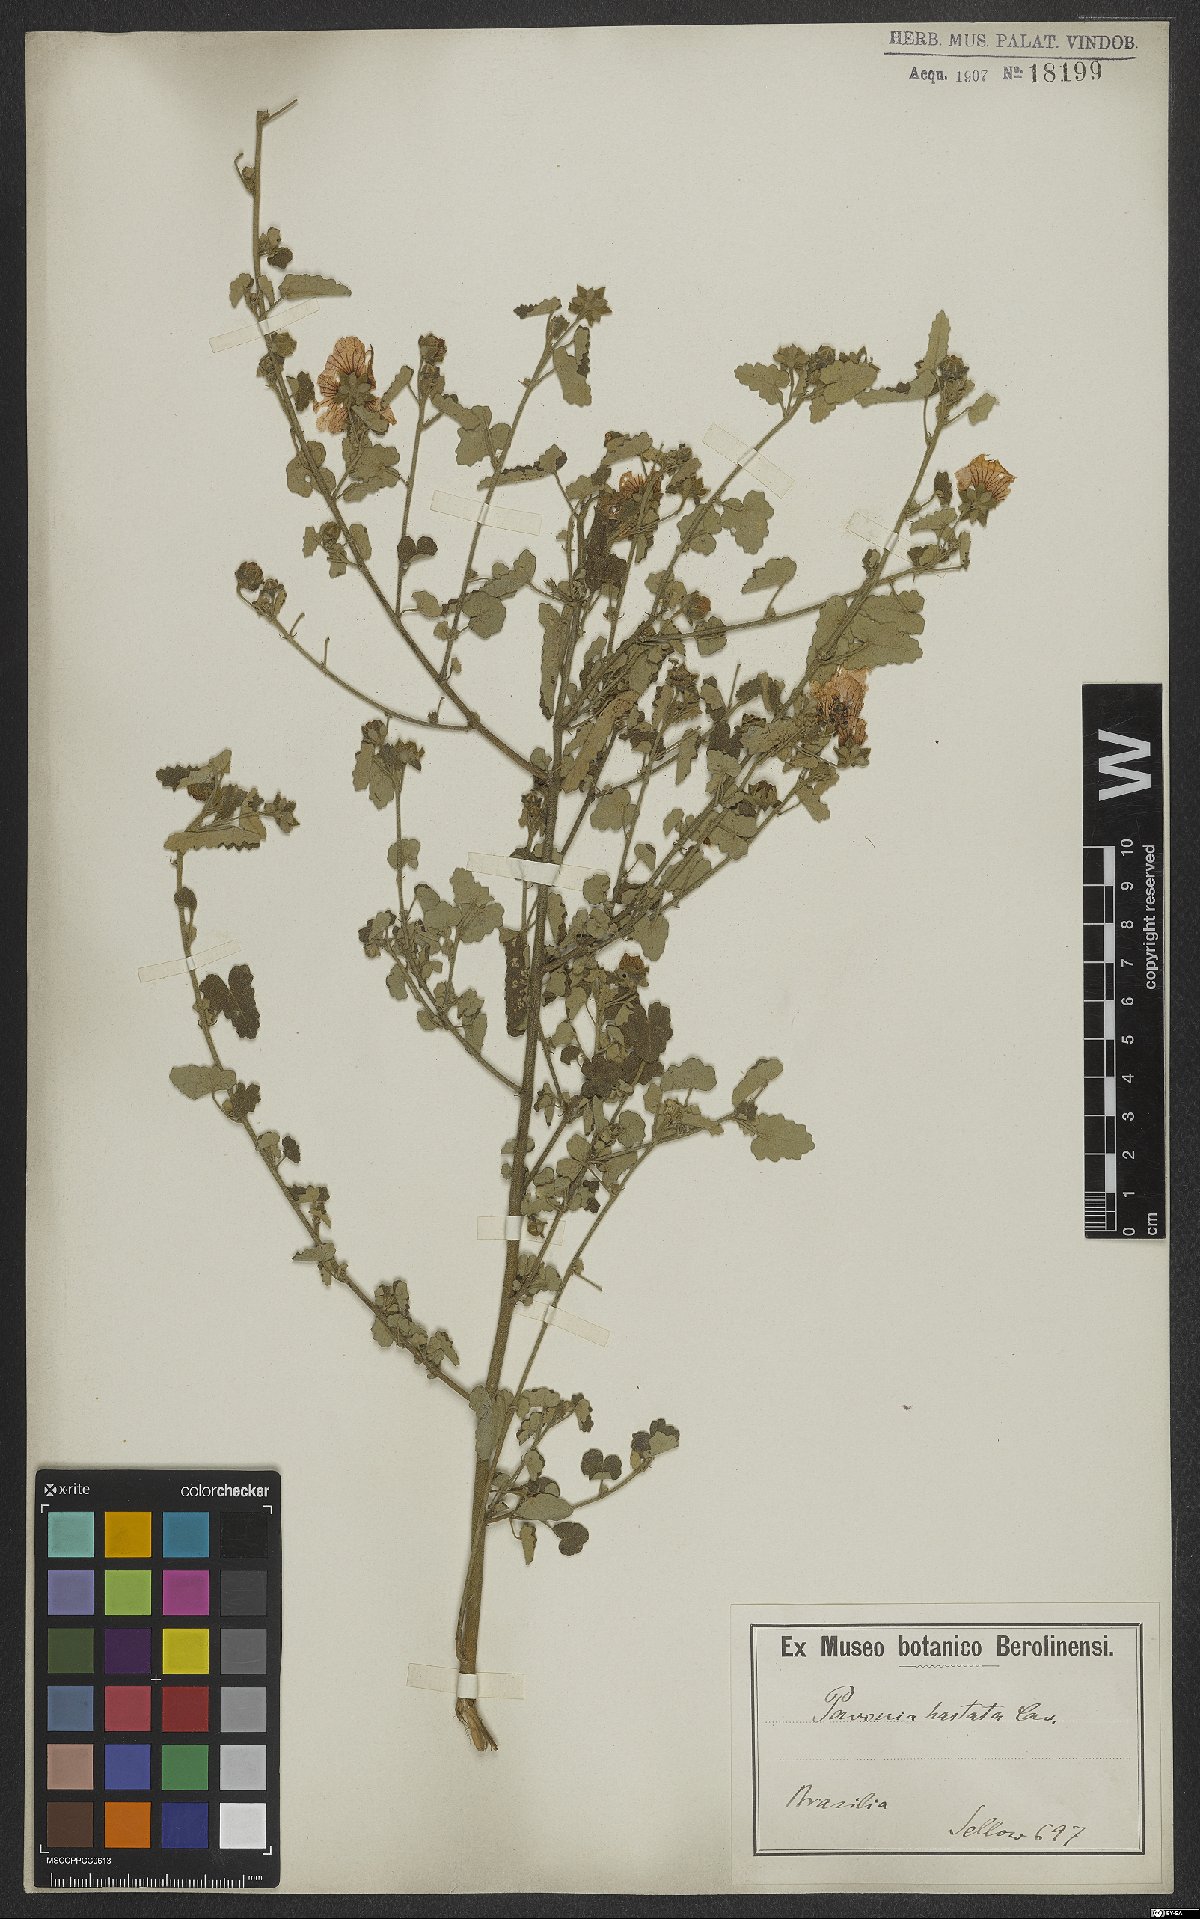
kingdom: Plantae
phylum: Tracheophyta
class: Magnoliopsida
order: Malvales
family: Malvaceae
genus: Pavonia
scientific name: Pavonia hastata
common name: Spearleaf swampmallow
